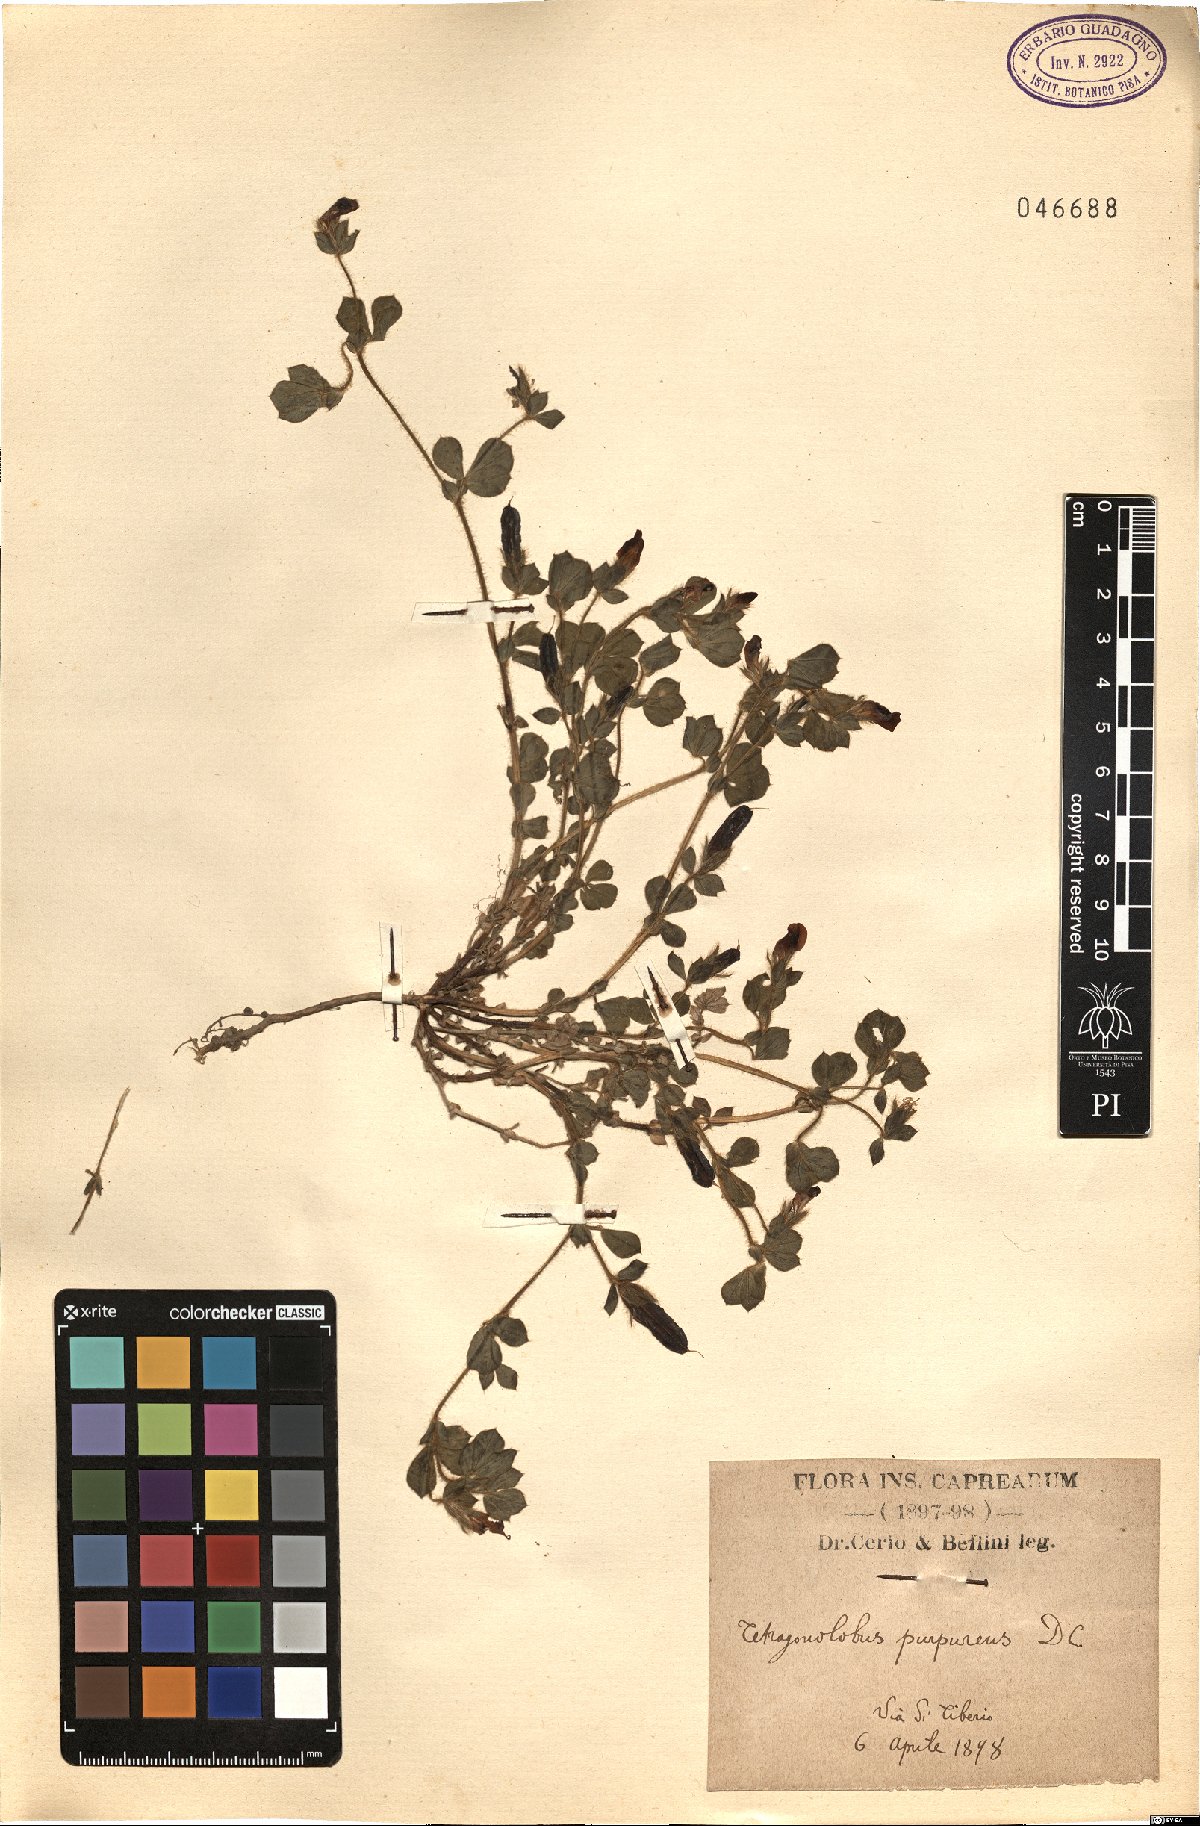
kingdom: Plantae
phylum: Tracheophyta
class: Magnoliopsida
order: Fabales
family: Fabaceae
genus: Lotus
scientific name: Lotus tetragonolobus
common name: Asparagus-pea
